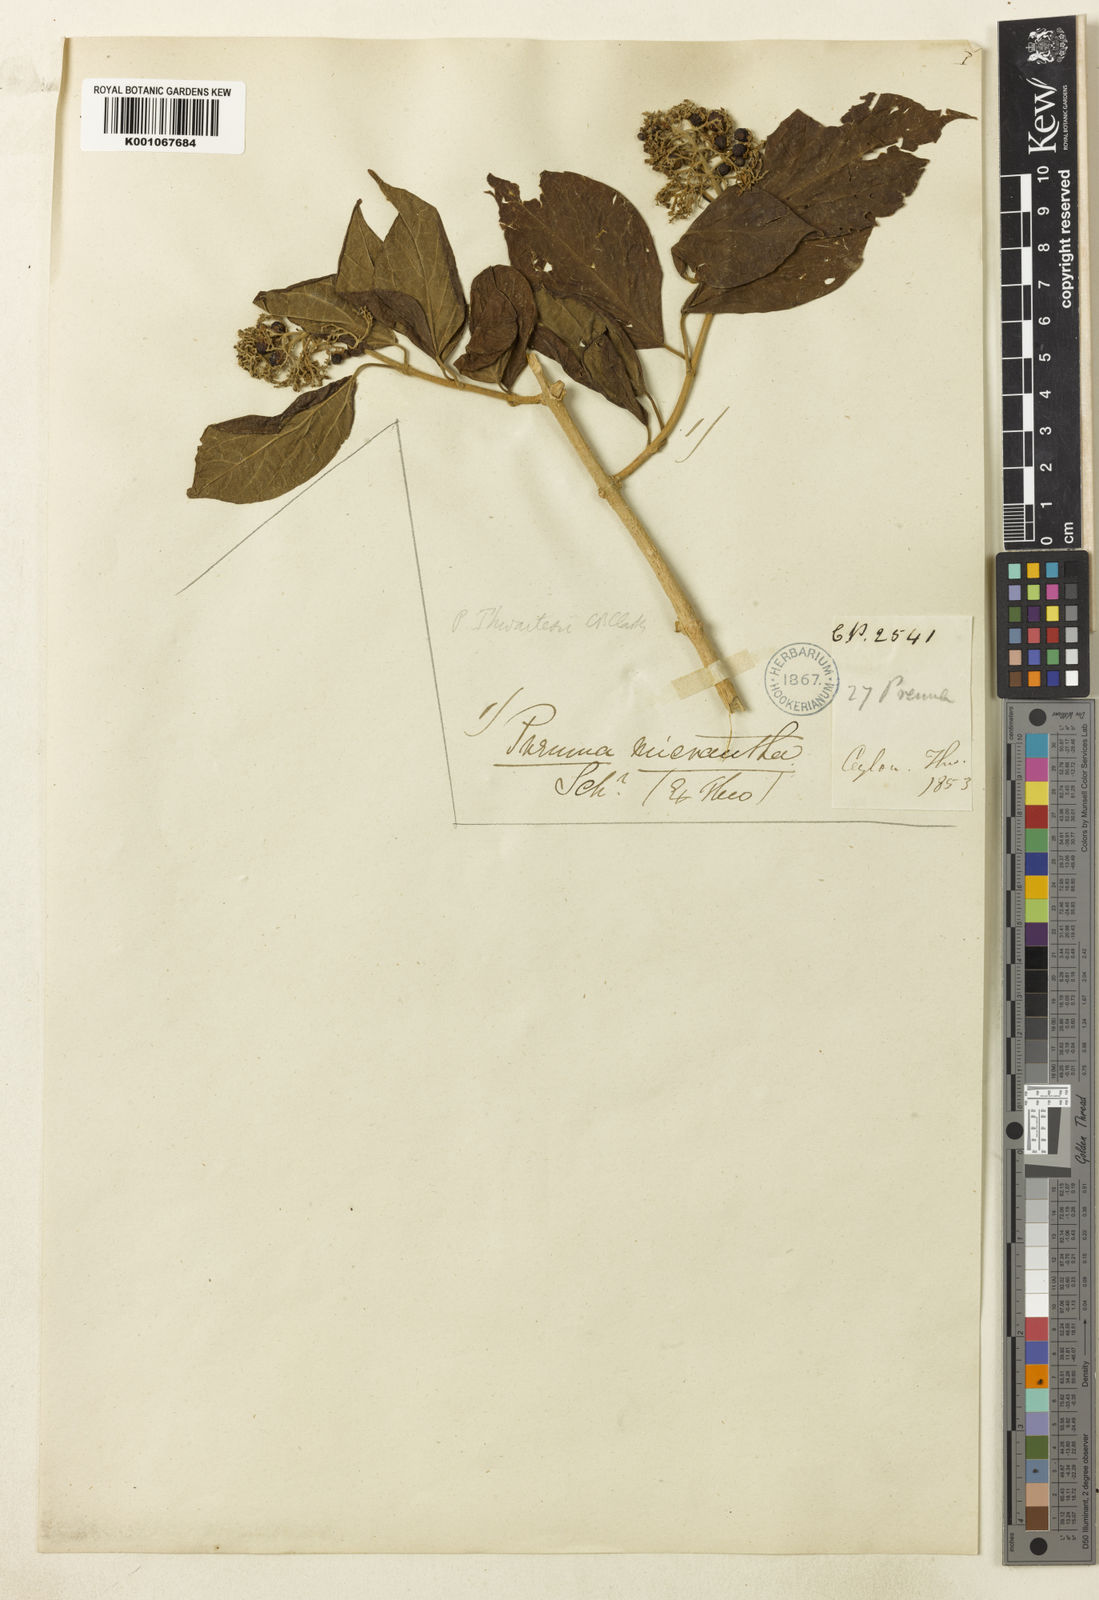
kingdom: Plantae
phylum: Tracheophyta
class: Magnoliopsida
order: Lamiales
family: Lamiaceae
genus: Premna
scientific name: Premna thwaitesii
